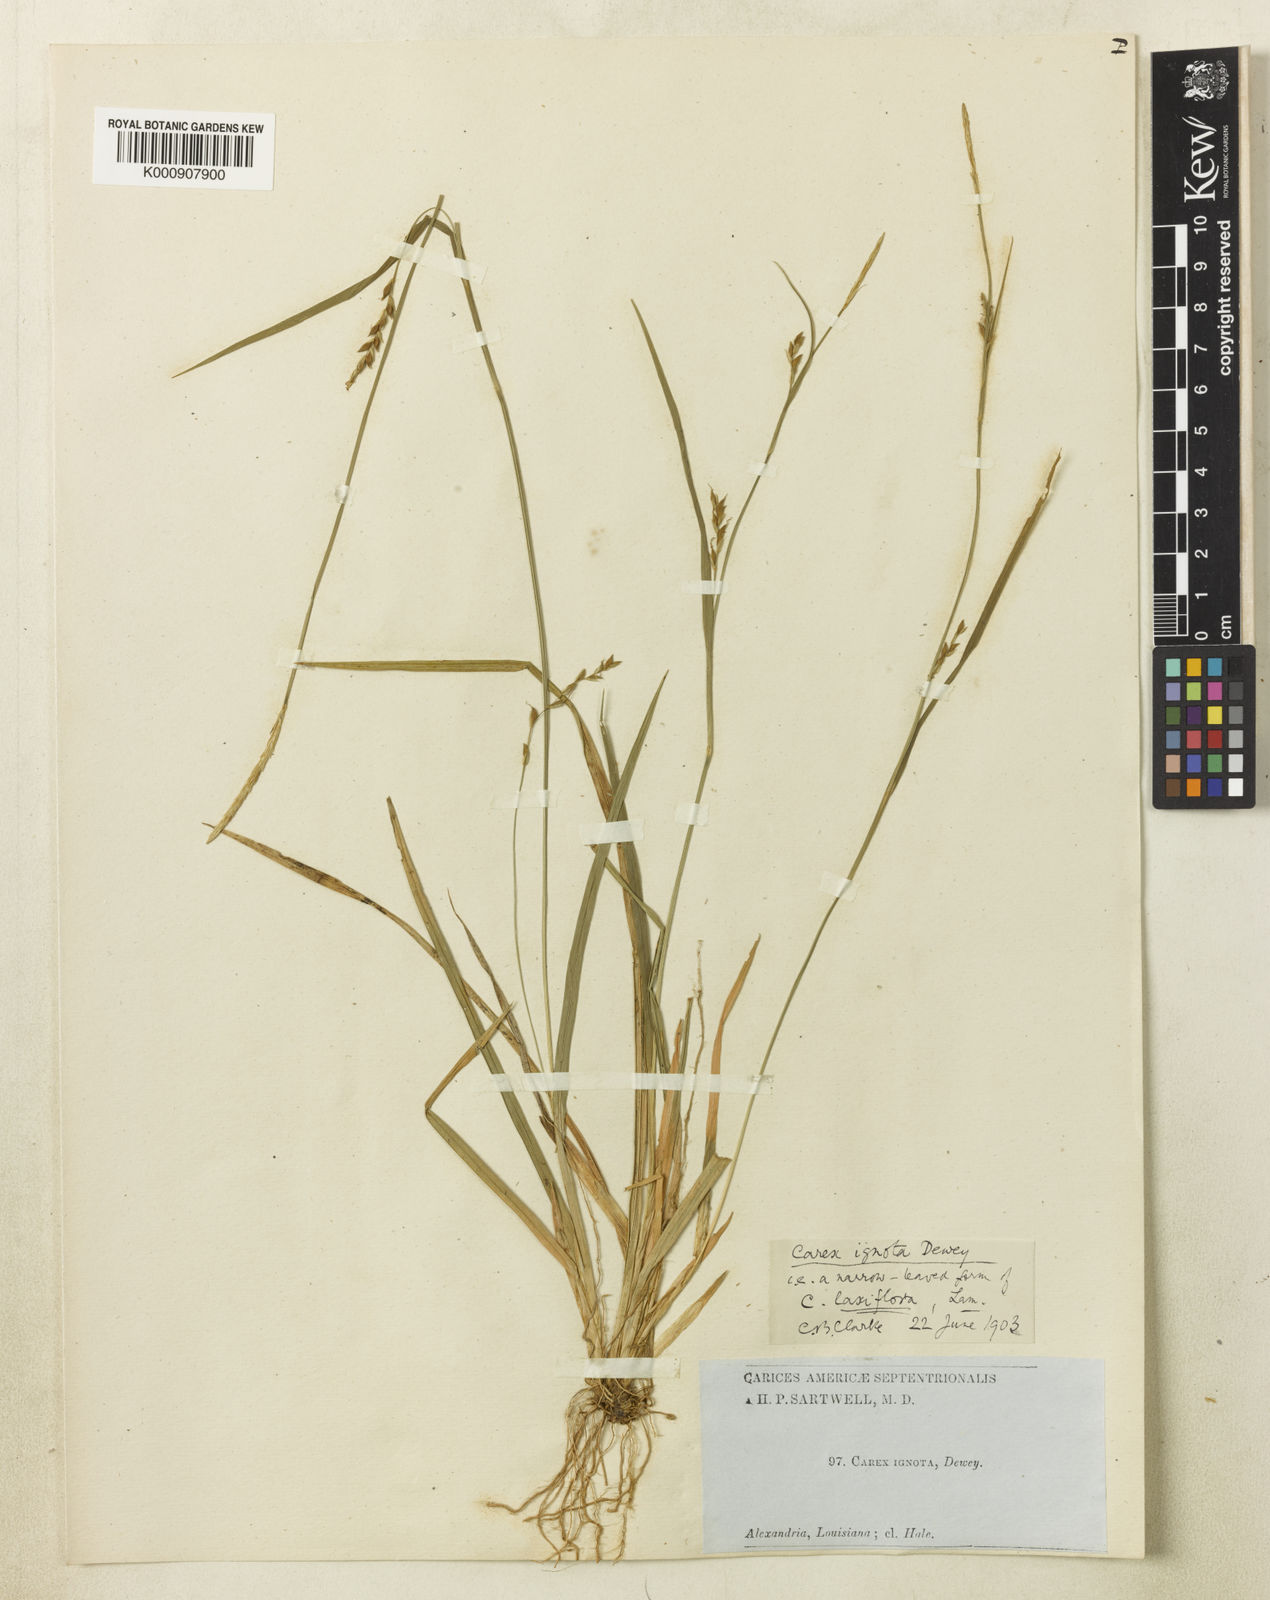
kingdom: Plantae
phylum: Tracheophyta
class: Liliopsida
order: Poales
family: Cyperaceae
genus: Carex
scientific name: Carex striatula
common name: Lined sedge
